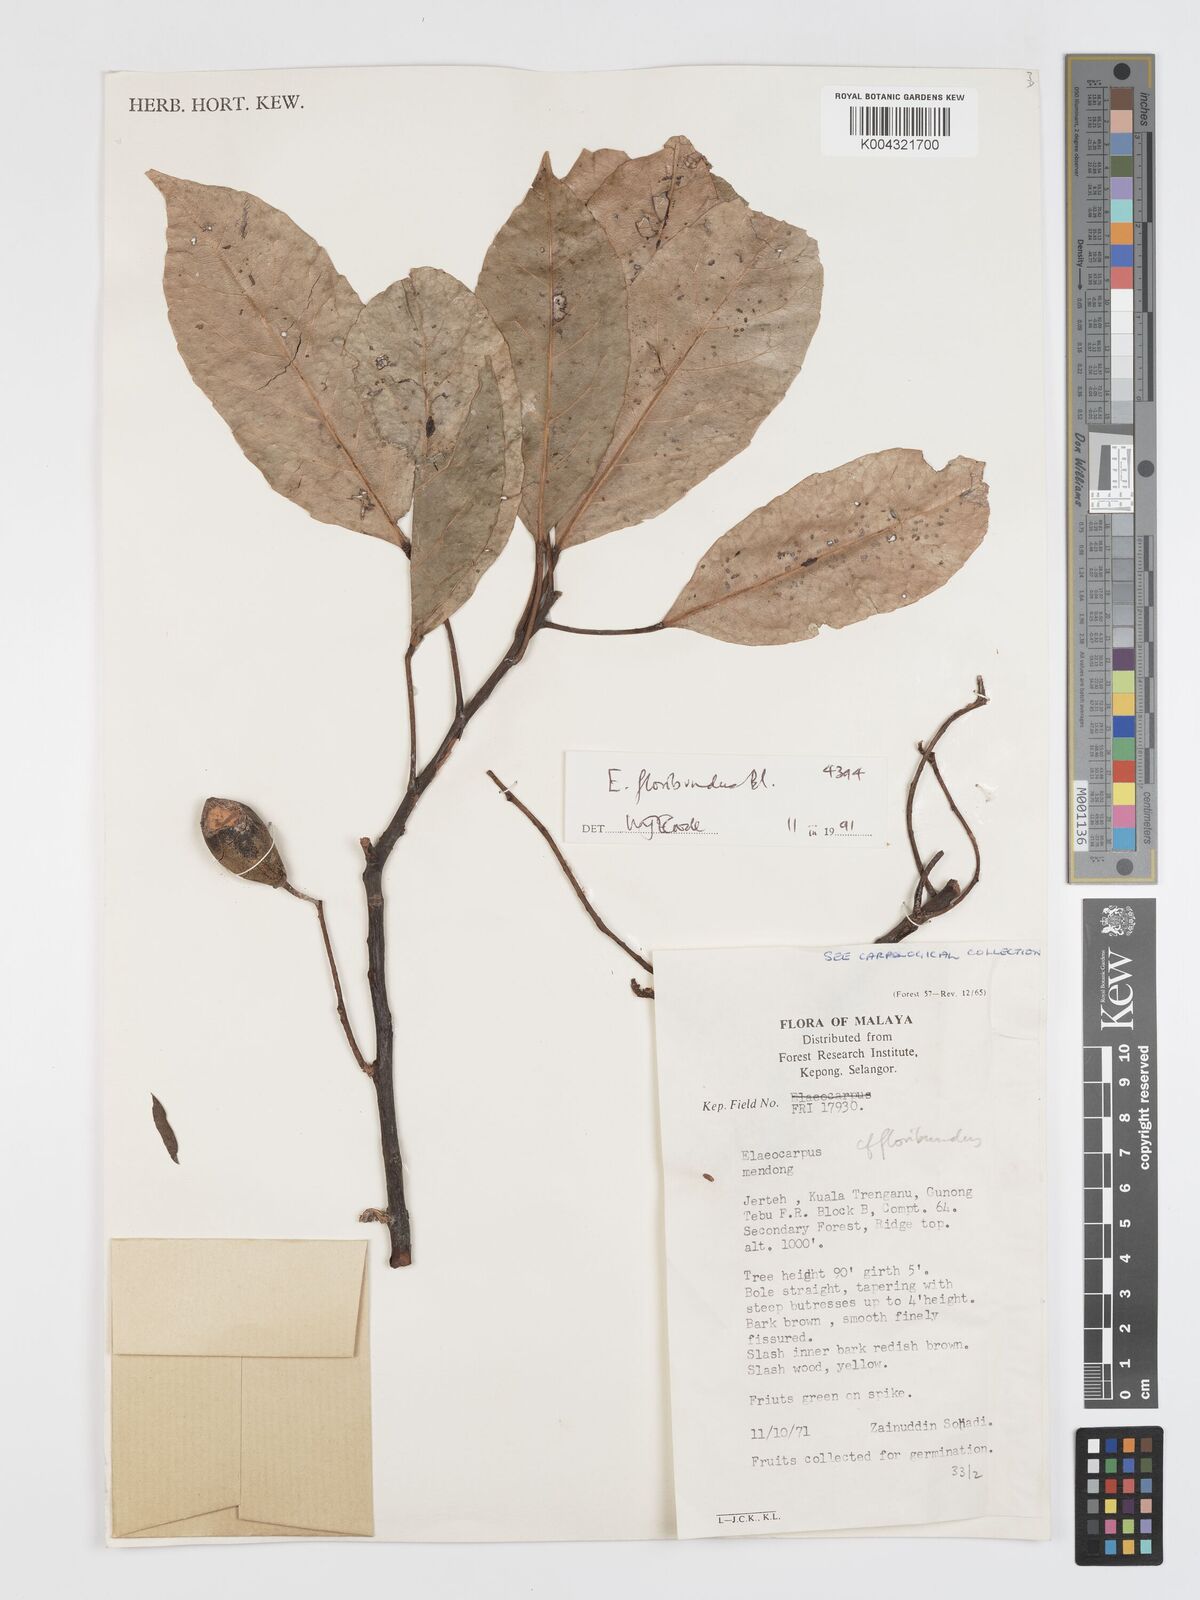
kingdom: Plantae
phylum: Tracheophyta
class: Magnoliopsida
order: Oxalidales
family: Elaeocarpaceae
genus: Elaeocarpus
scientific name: Elaeocarpus floribundus
